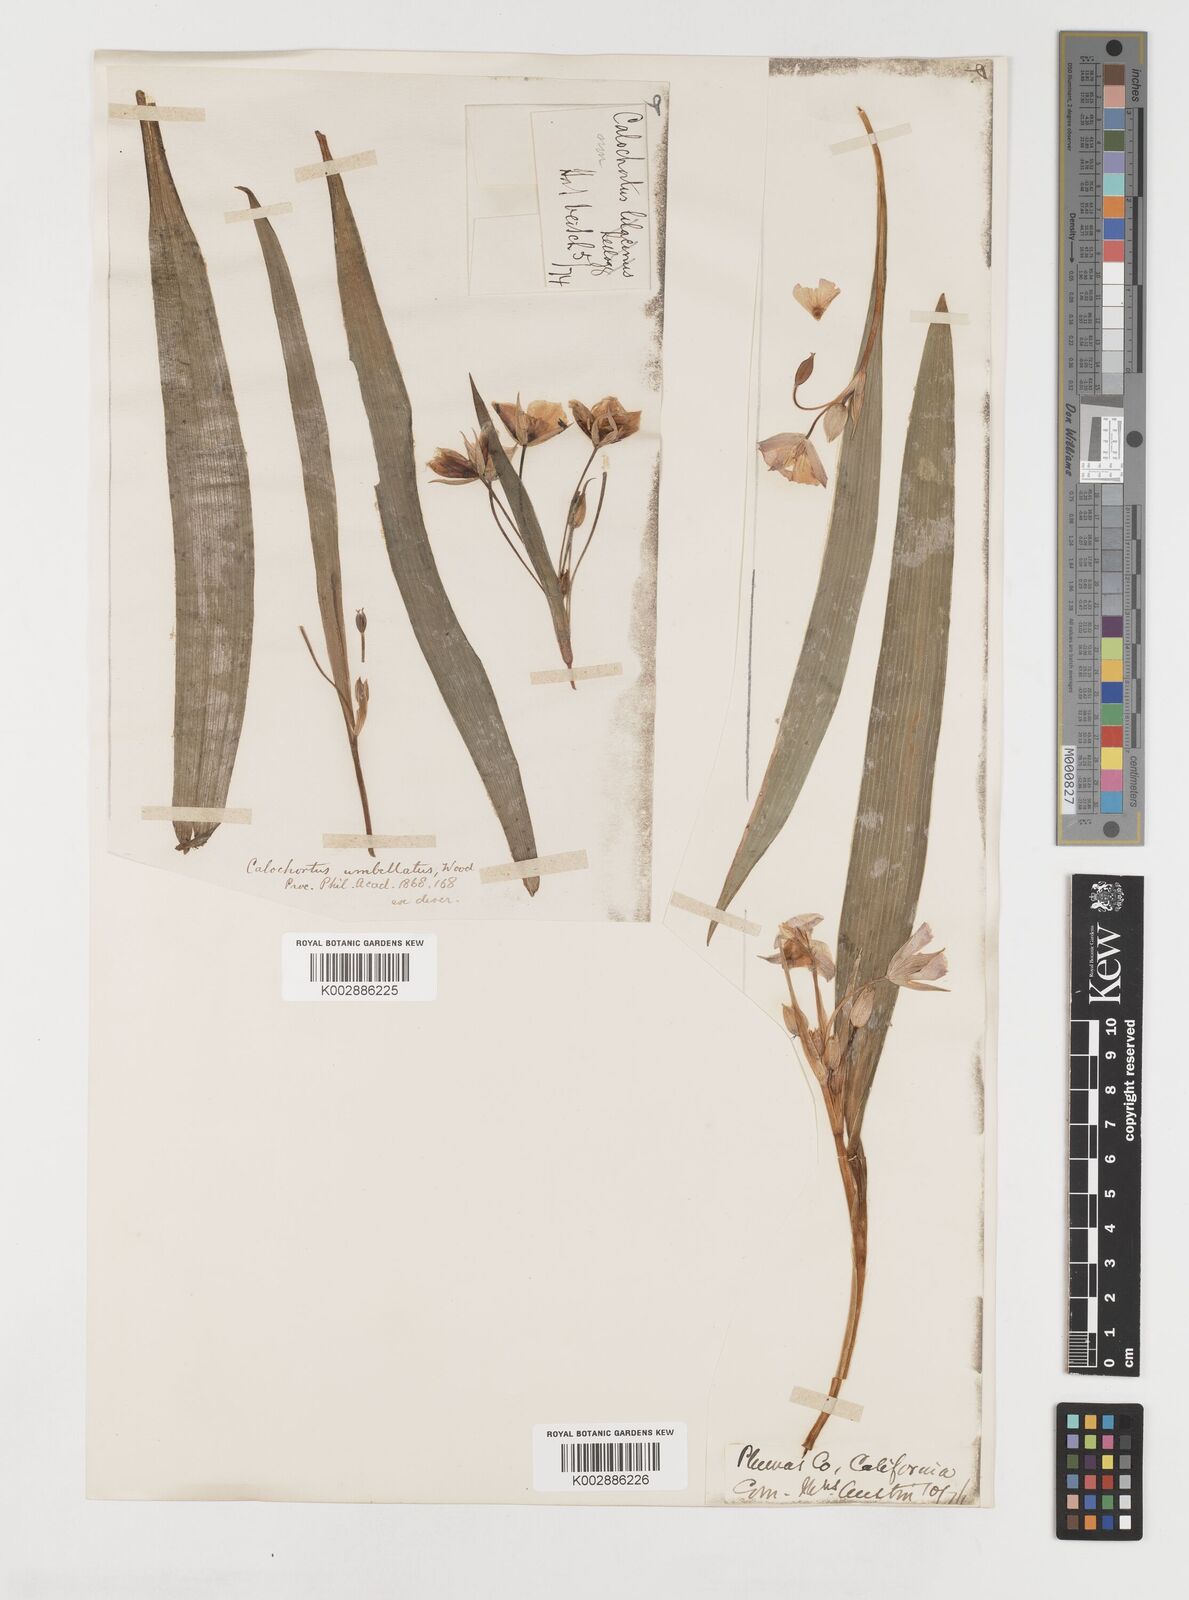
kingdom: Plantae
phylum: Tracheophyta
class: Liliopsida
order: Liliales
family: Liliaceae
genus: Calochortus
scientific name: Calochortus umbellatus
